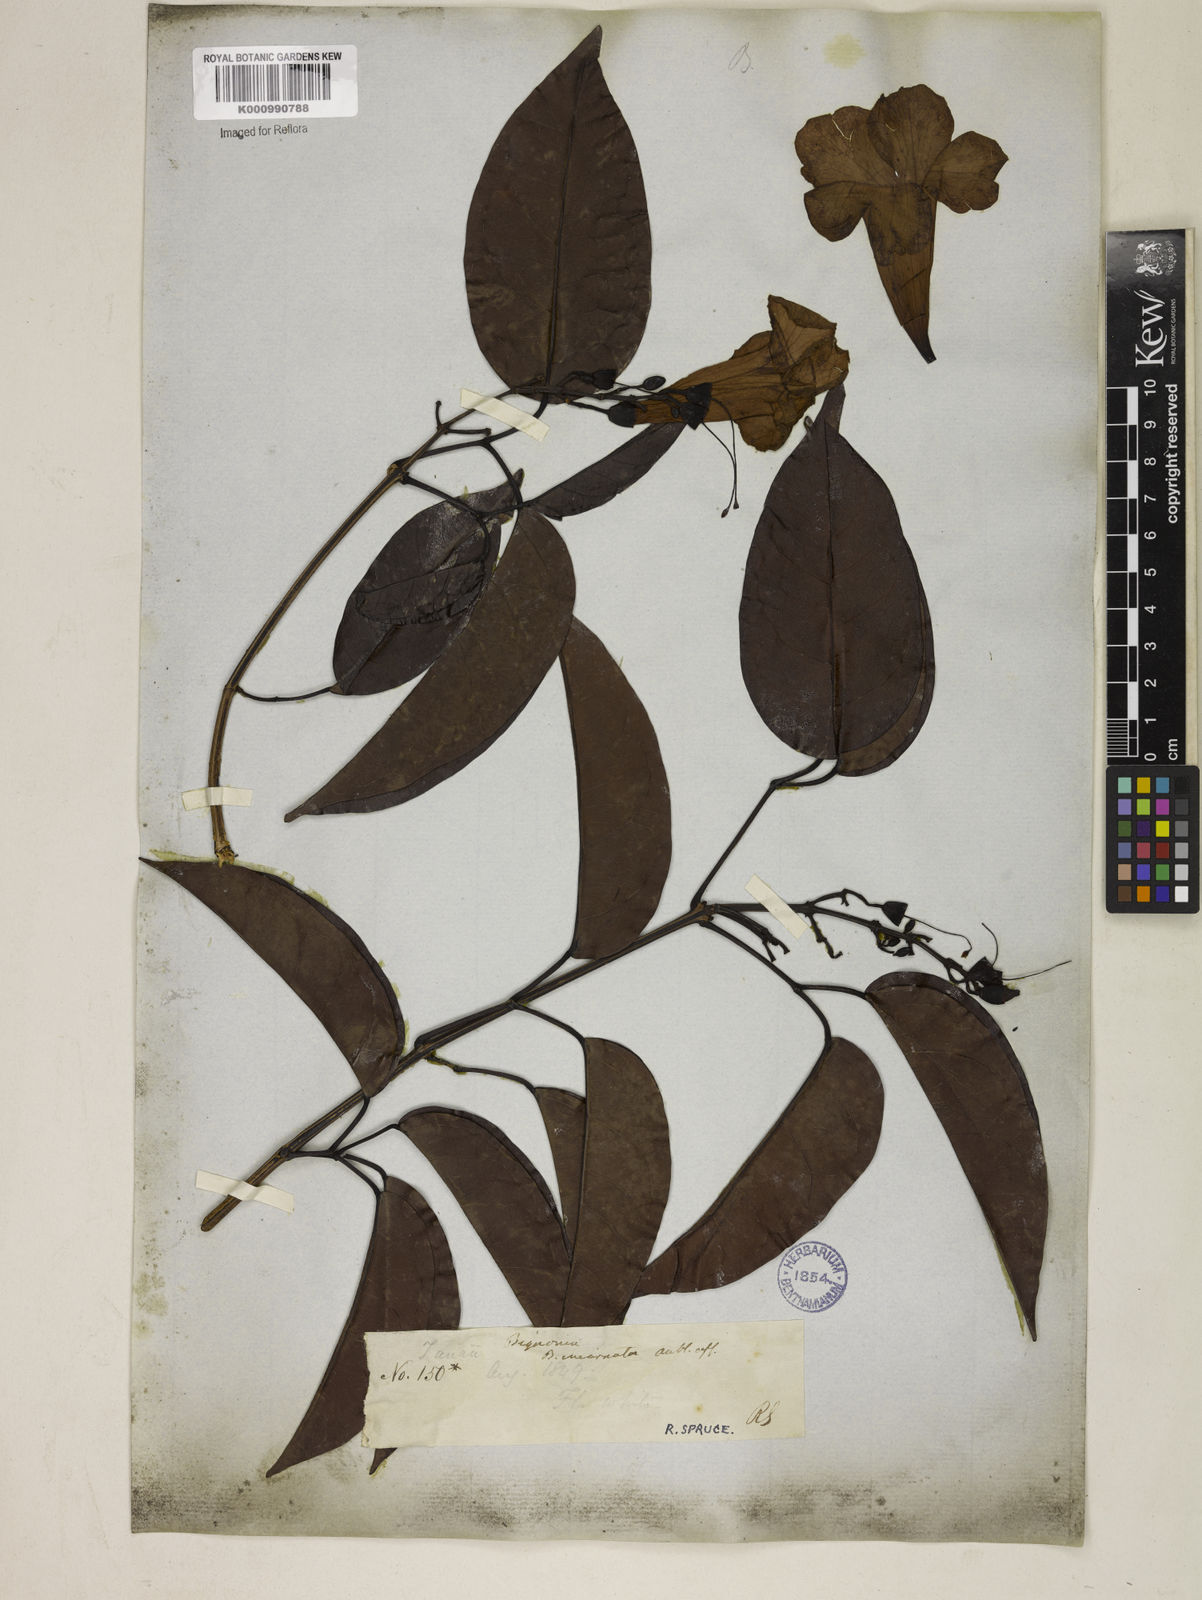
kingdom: Plantae
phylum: Tracheophyta
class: Magnoliopsida
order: Lamiales
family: Bignoniaceae
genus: Bignonia
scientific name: Bignonia aequinoctialis
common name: Garlicvine
